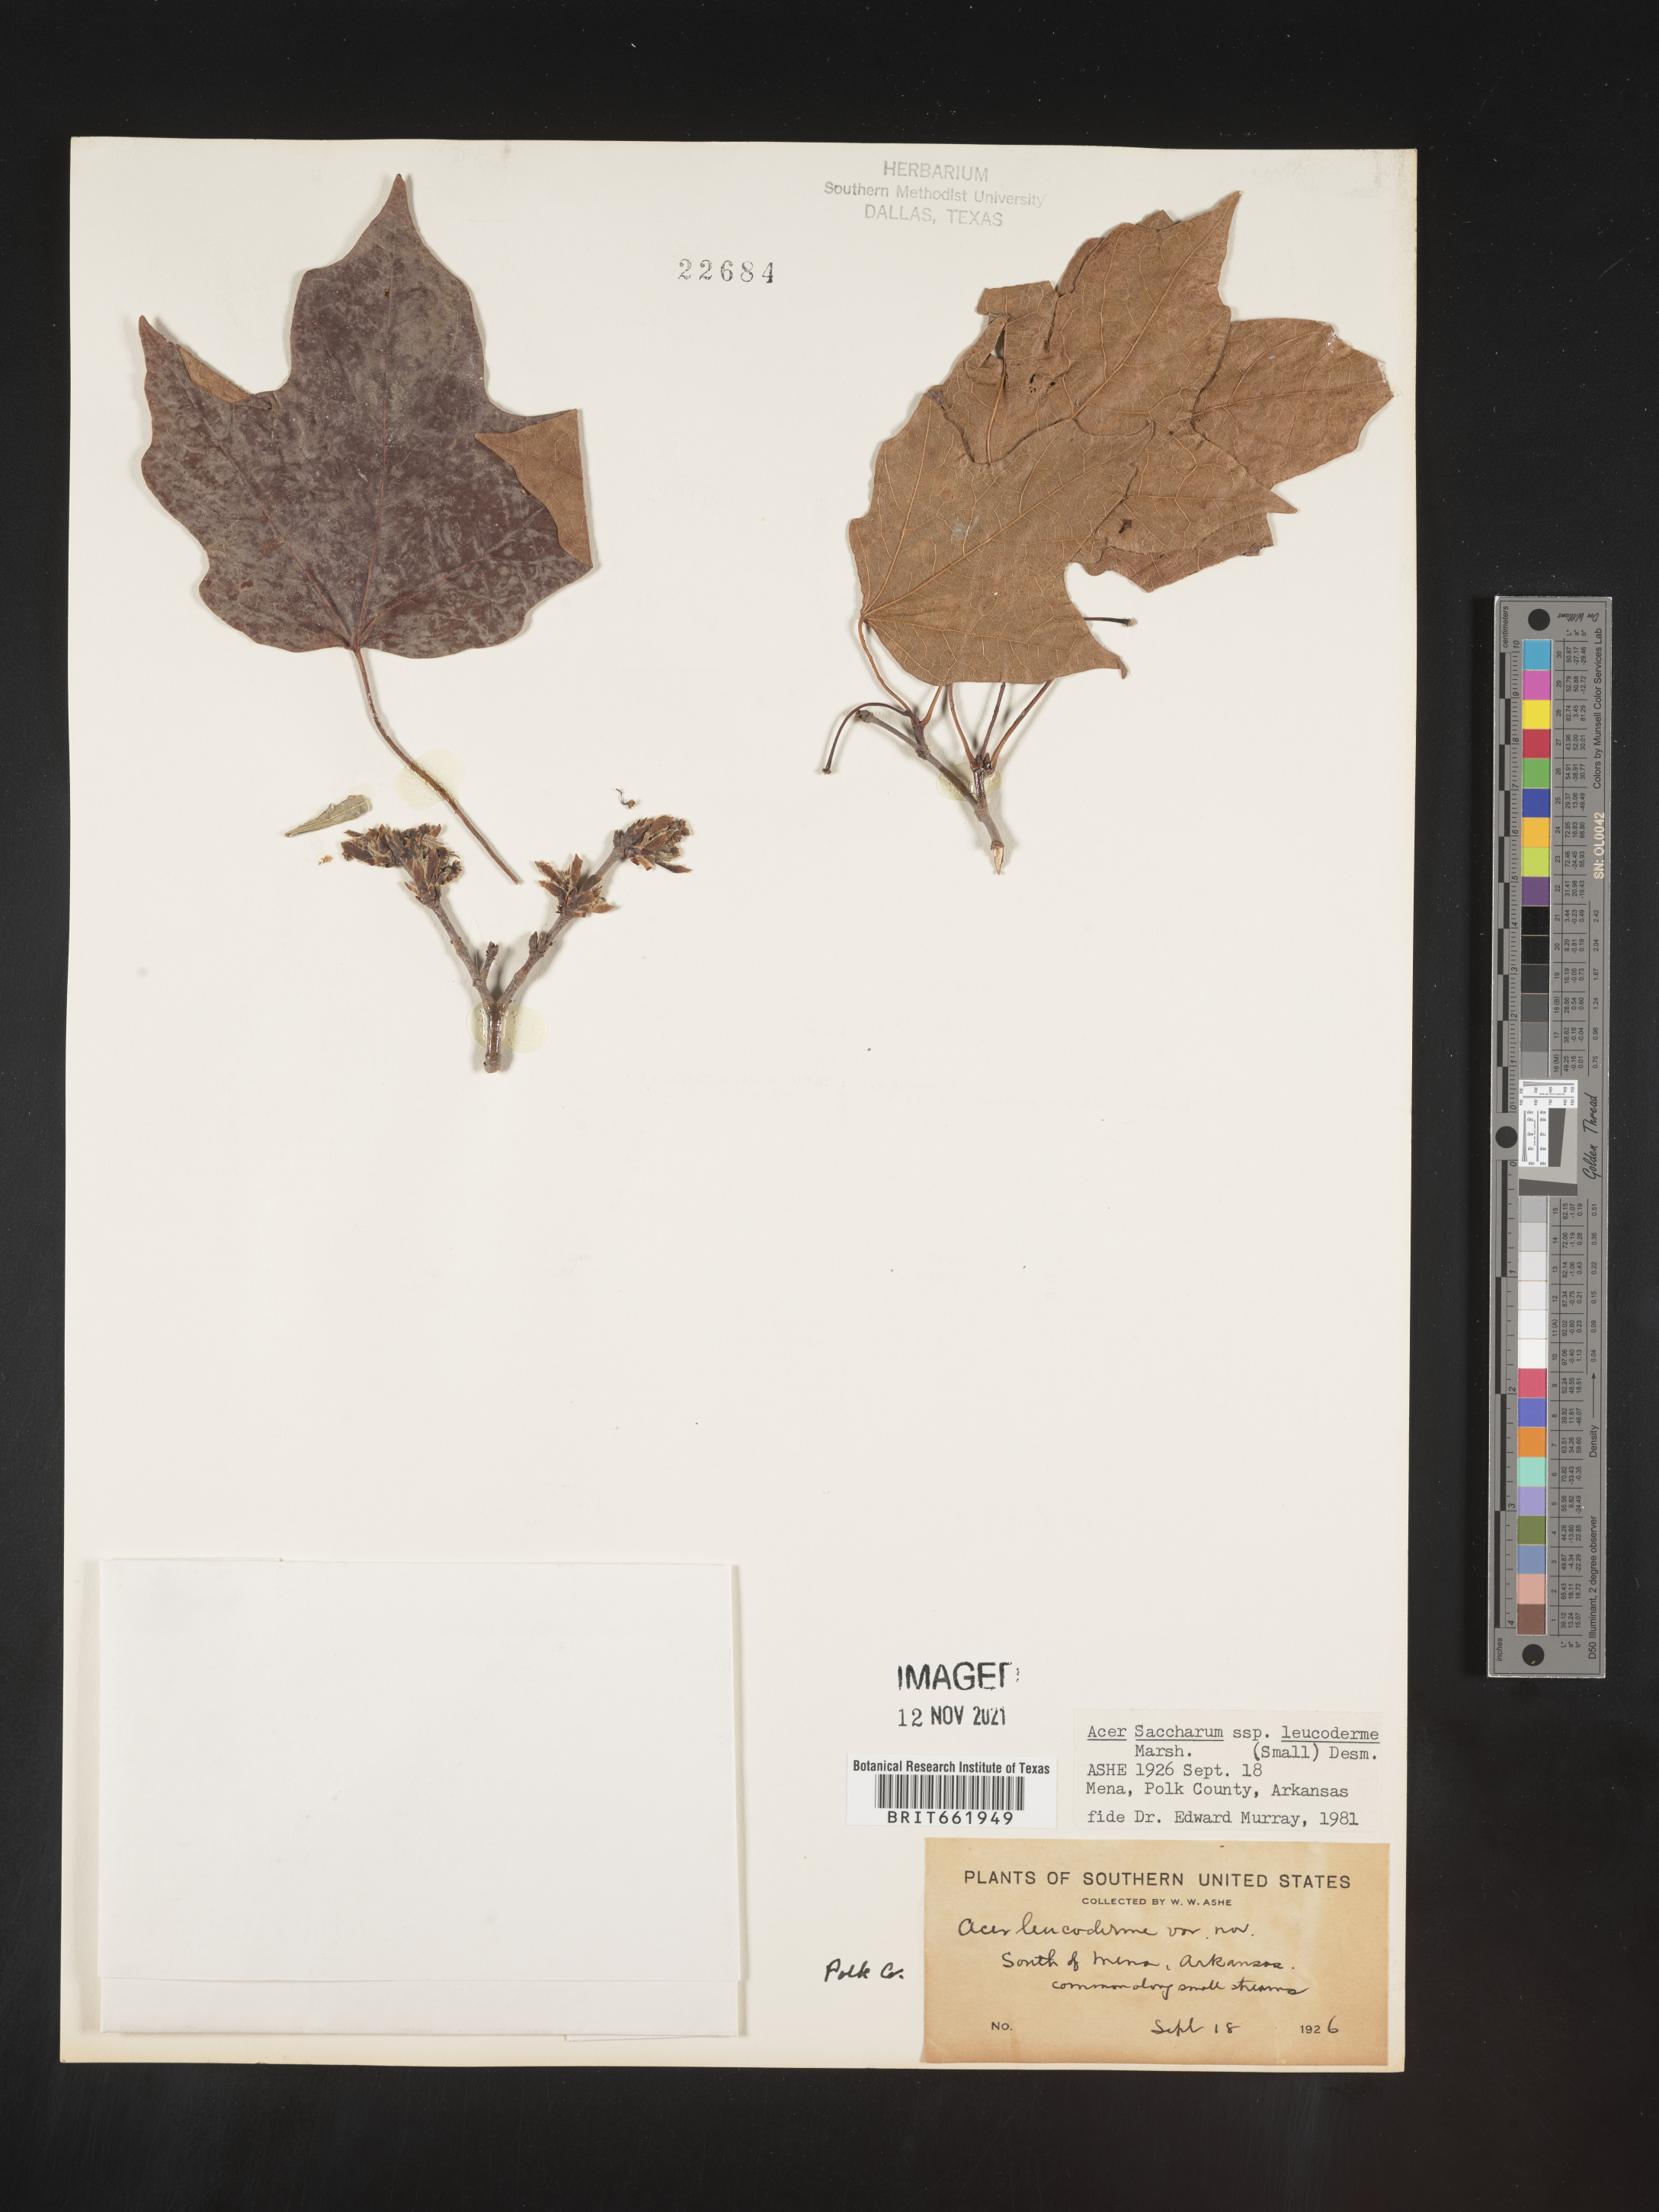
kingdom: Plantae
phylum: Tracheophyta
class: Magnoliopsida
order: Sapindales
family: Sapindaceae
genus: Acer
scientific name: Acer leucoderme
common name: Chalk maple
